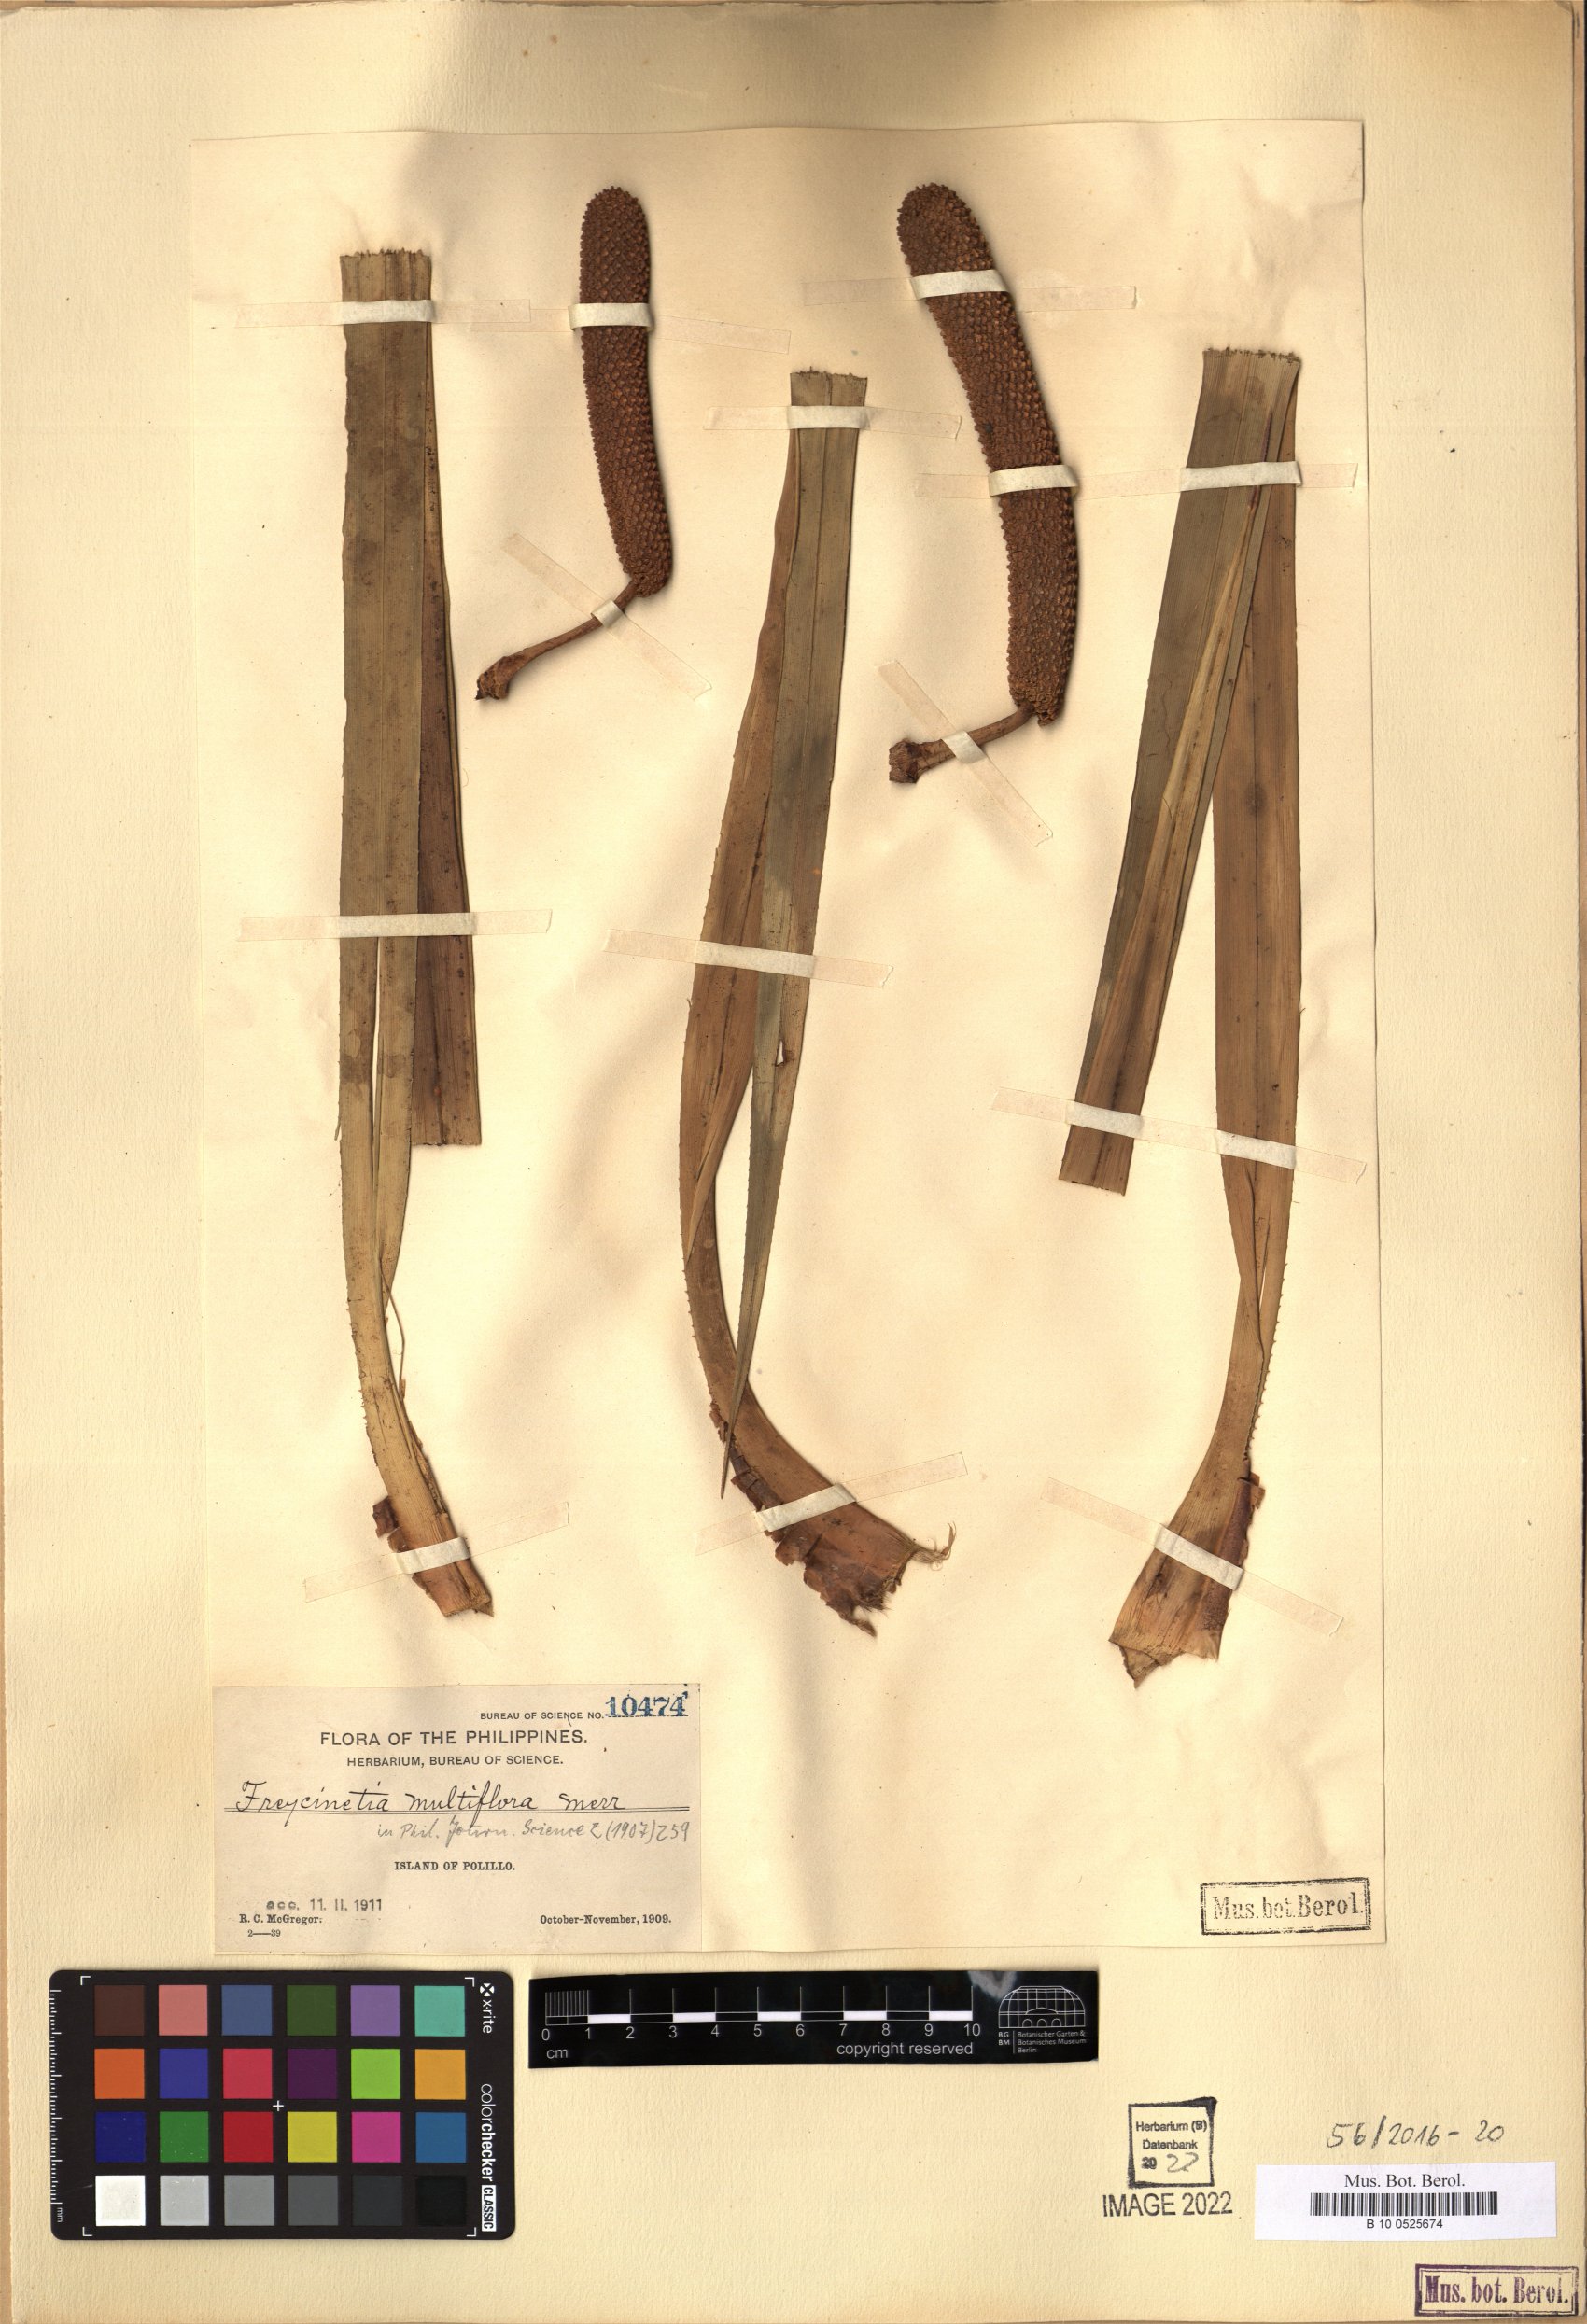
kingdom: Plantae
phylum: Tracheophyta
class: Liliopsida
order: Pandanales
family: Pandanaceae
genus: Freycinetia
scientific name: Freycinetia multiflora
